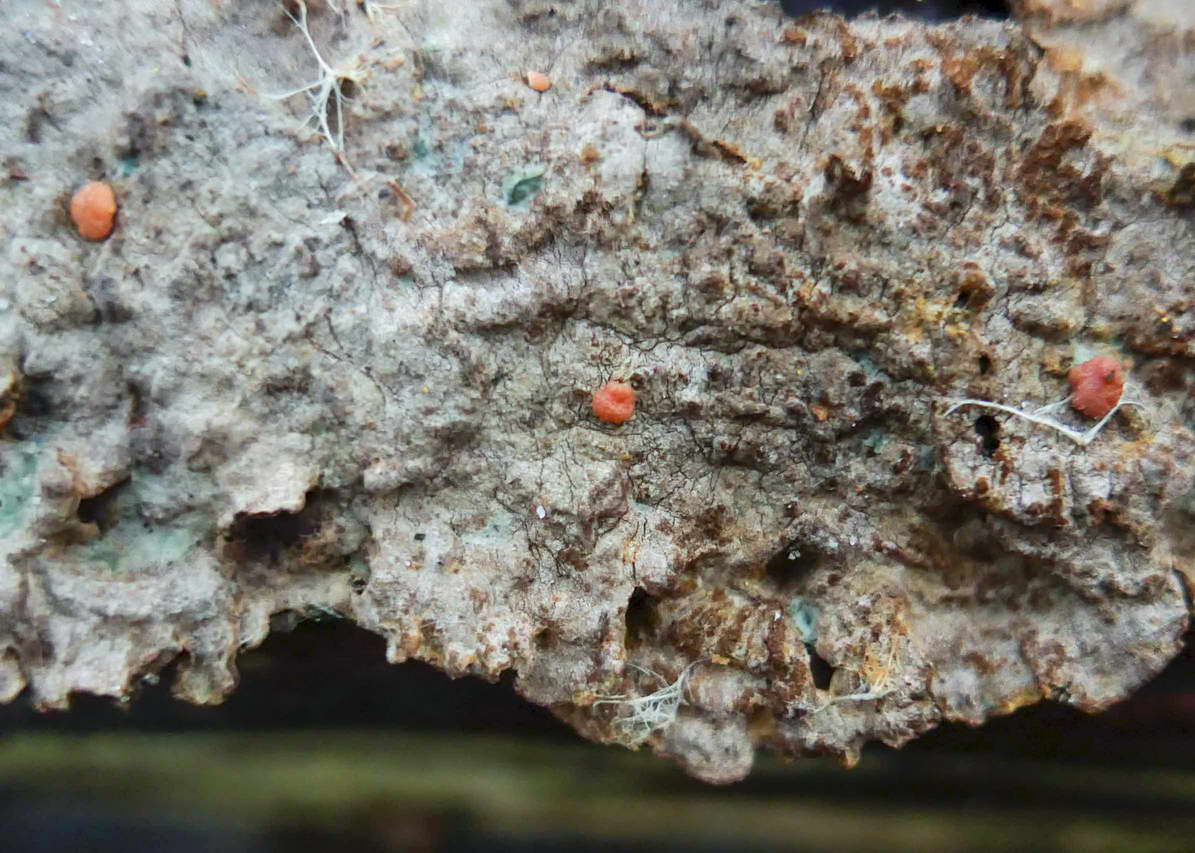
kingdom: Fungi
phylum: Ascomycota
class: Sordariomycetes
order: Hypocreales
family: Hypocreaceae
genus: Trichoderma
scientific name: Trichoderma estonicum
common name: ruslæder-kødkerne
